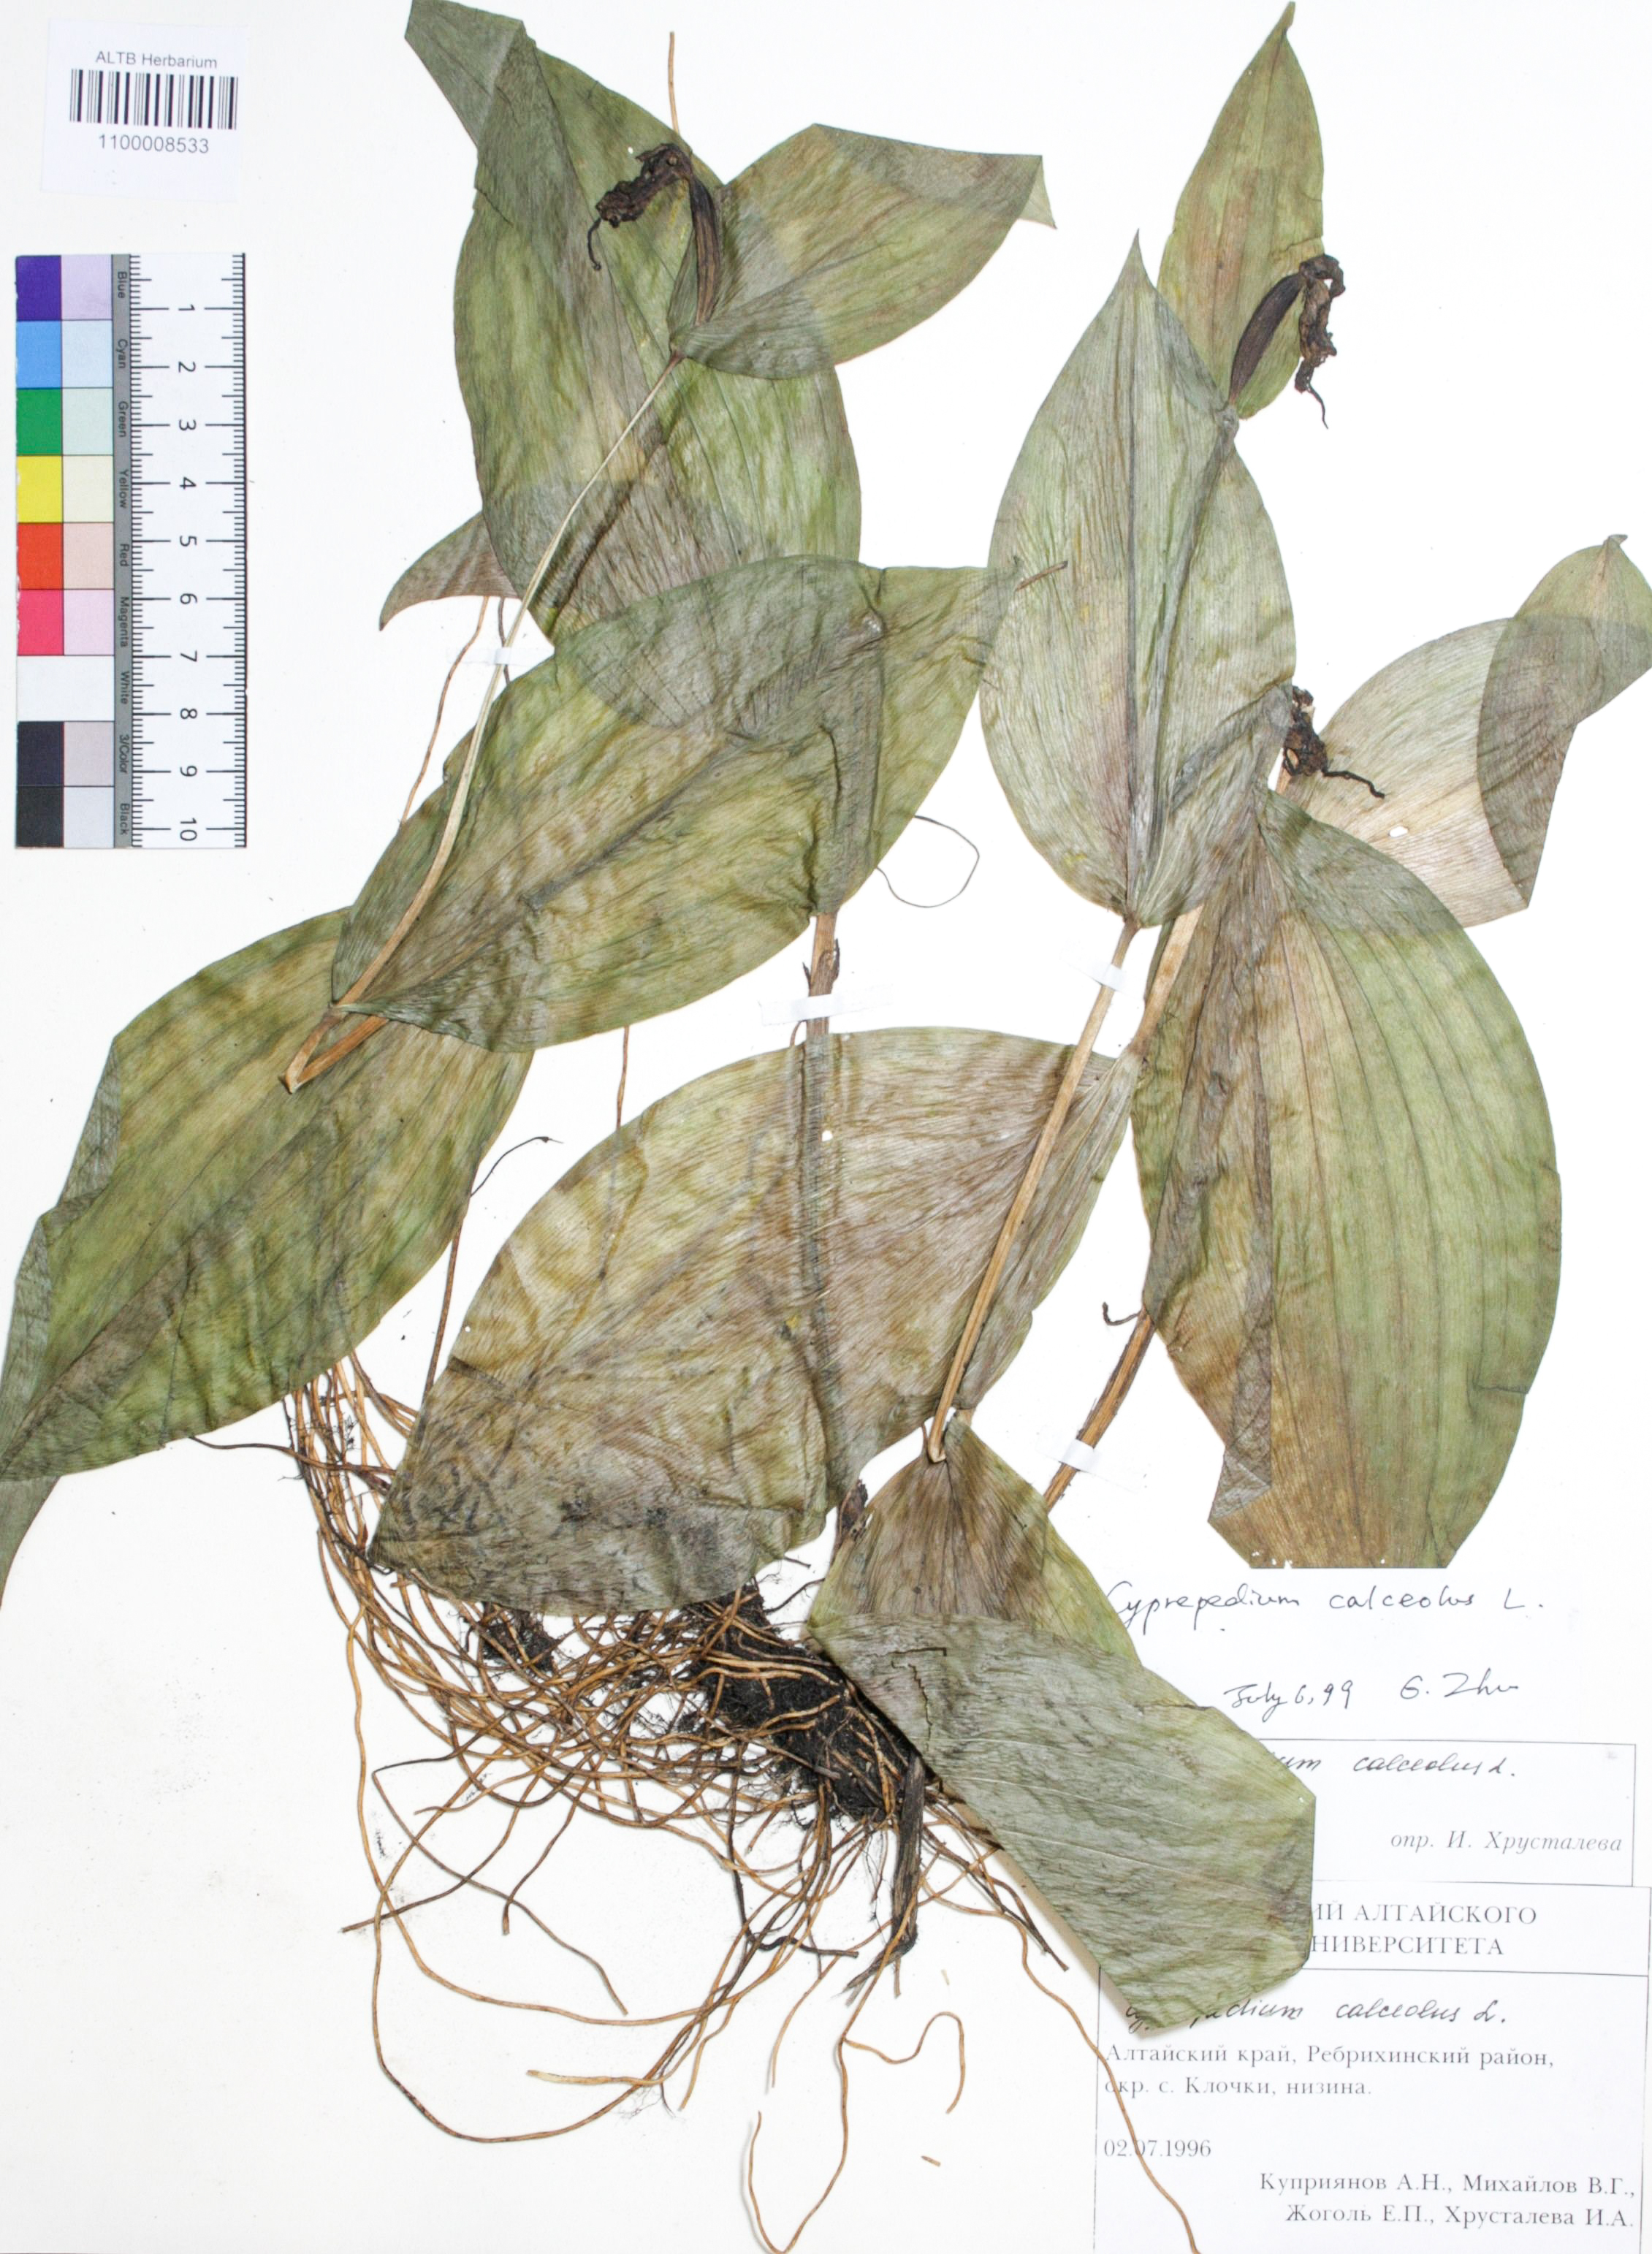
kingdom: Plantae
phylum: Tracheophyta
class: Liliopsida
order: Asparagales
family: Orchidaceae
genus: Cypripedium
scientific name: Cypripedium calceolus
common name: Lady's-slipper
